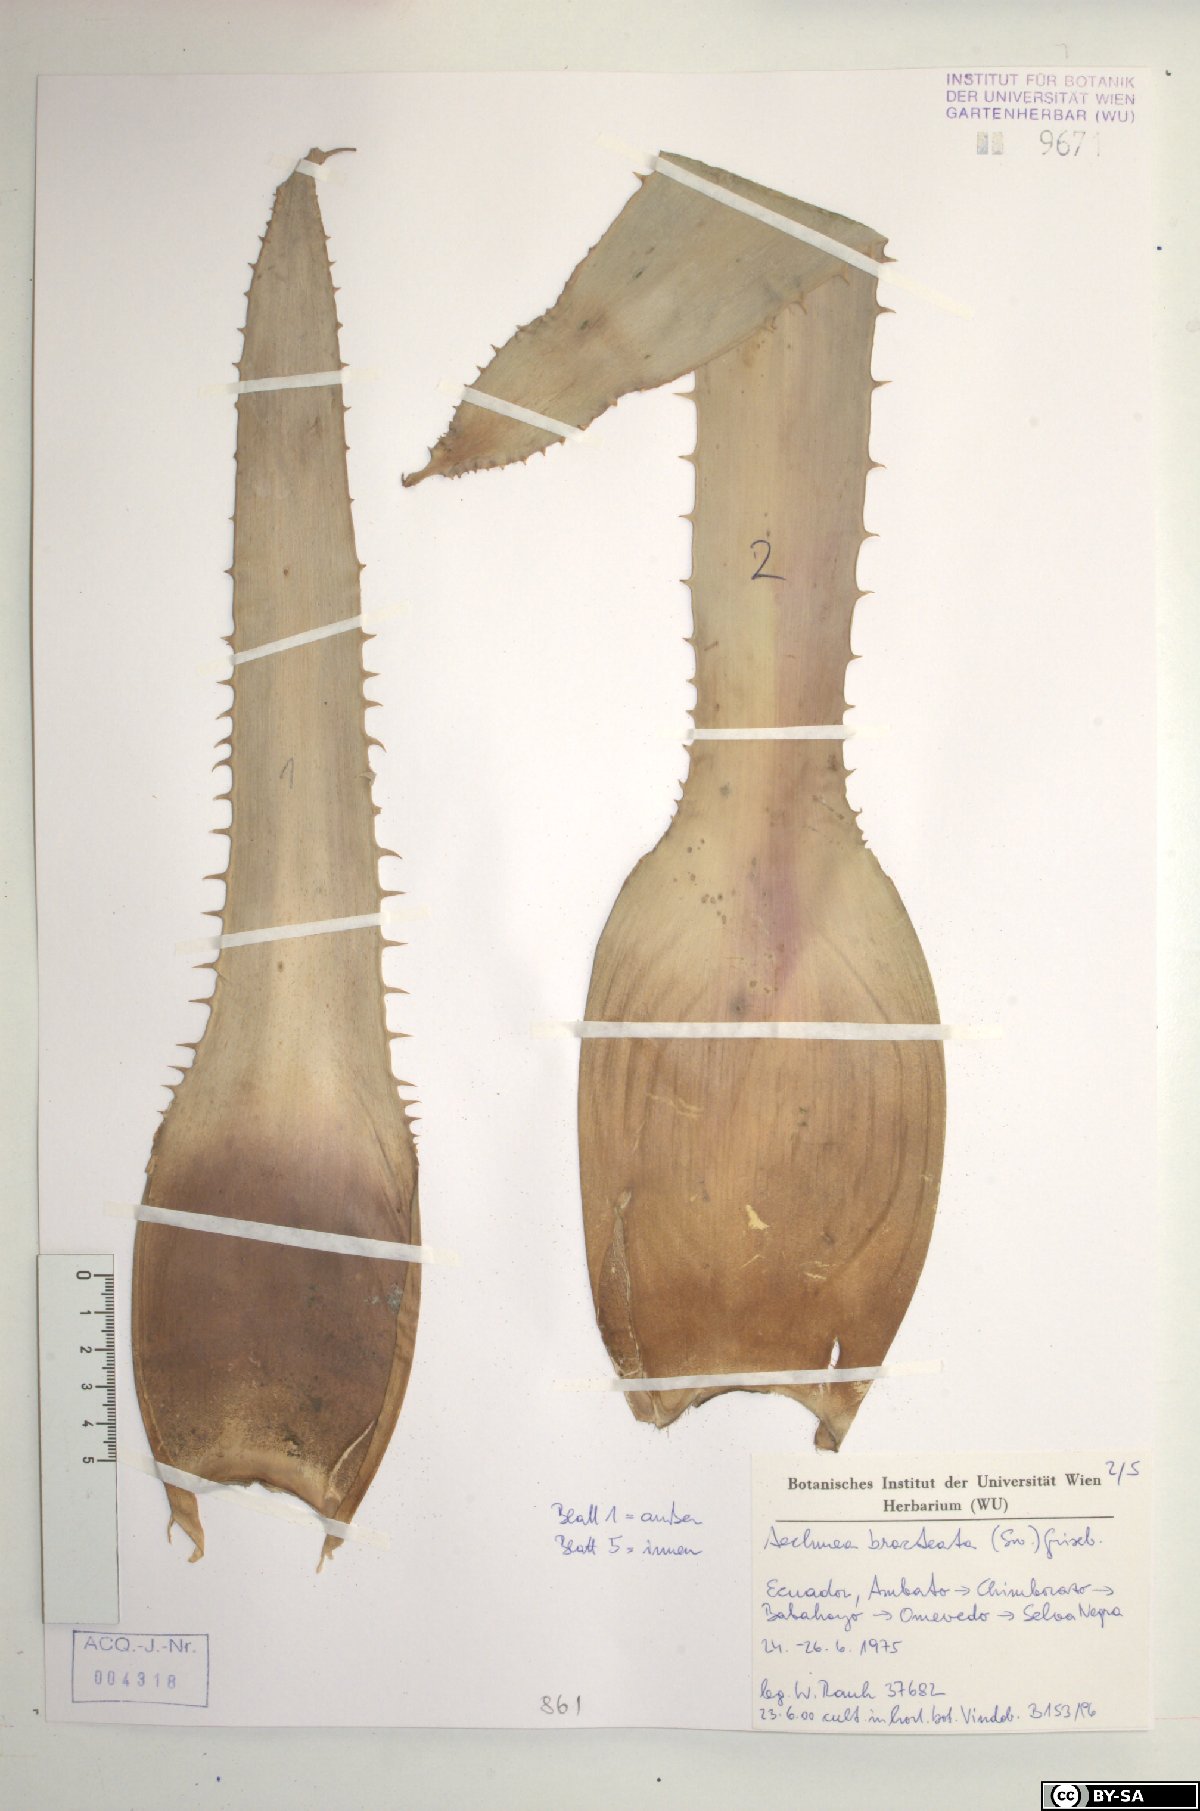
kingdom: Plantae
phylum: Tracheophyta
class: Liliopsida
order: Poales
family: Bromeliaceae
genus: Aechmea
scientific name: Aechmea bracteata
